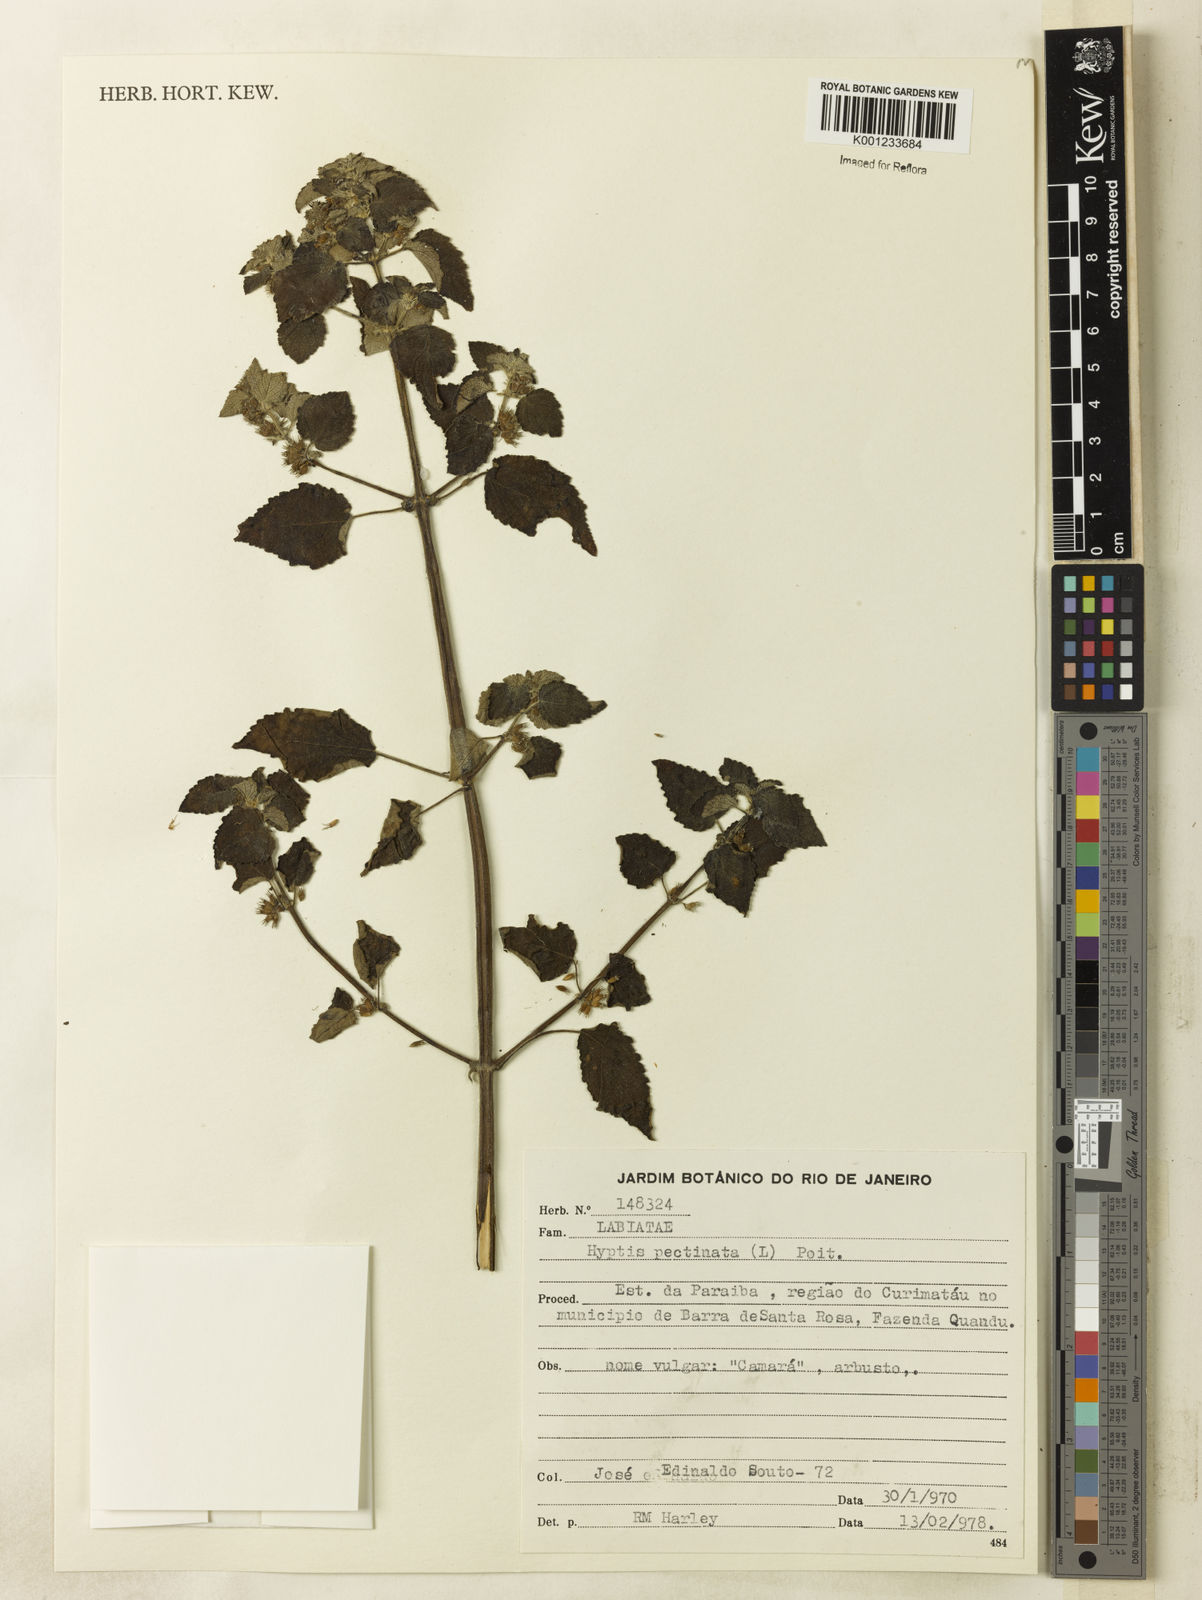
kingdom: Plantae
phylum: Tracheophyta
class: Magnoliopsida
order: Lamiales
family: Lamiaceae
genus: Mesosphaerum
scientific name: Mesosphaerum pectinatum
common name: Comb hyptis
